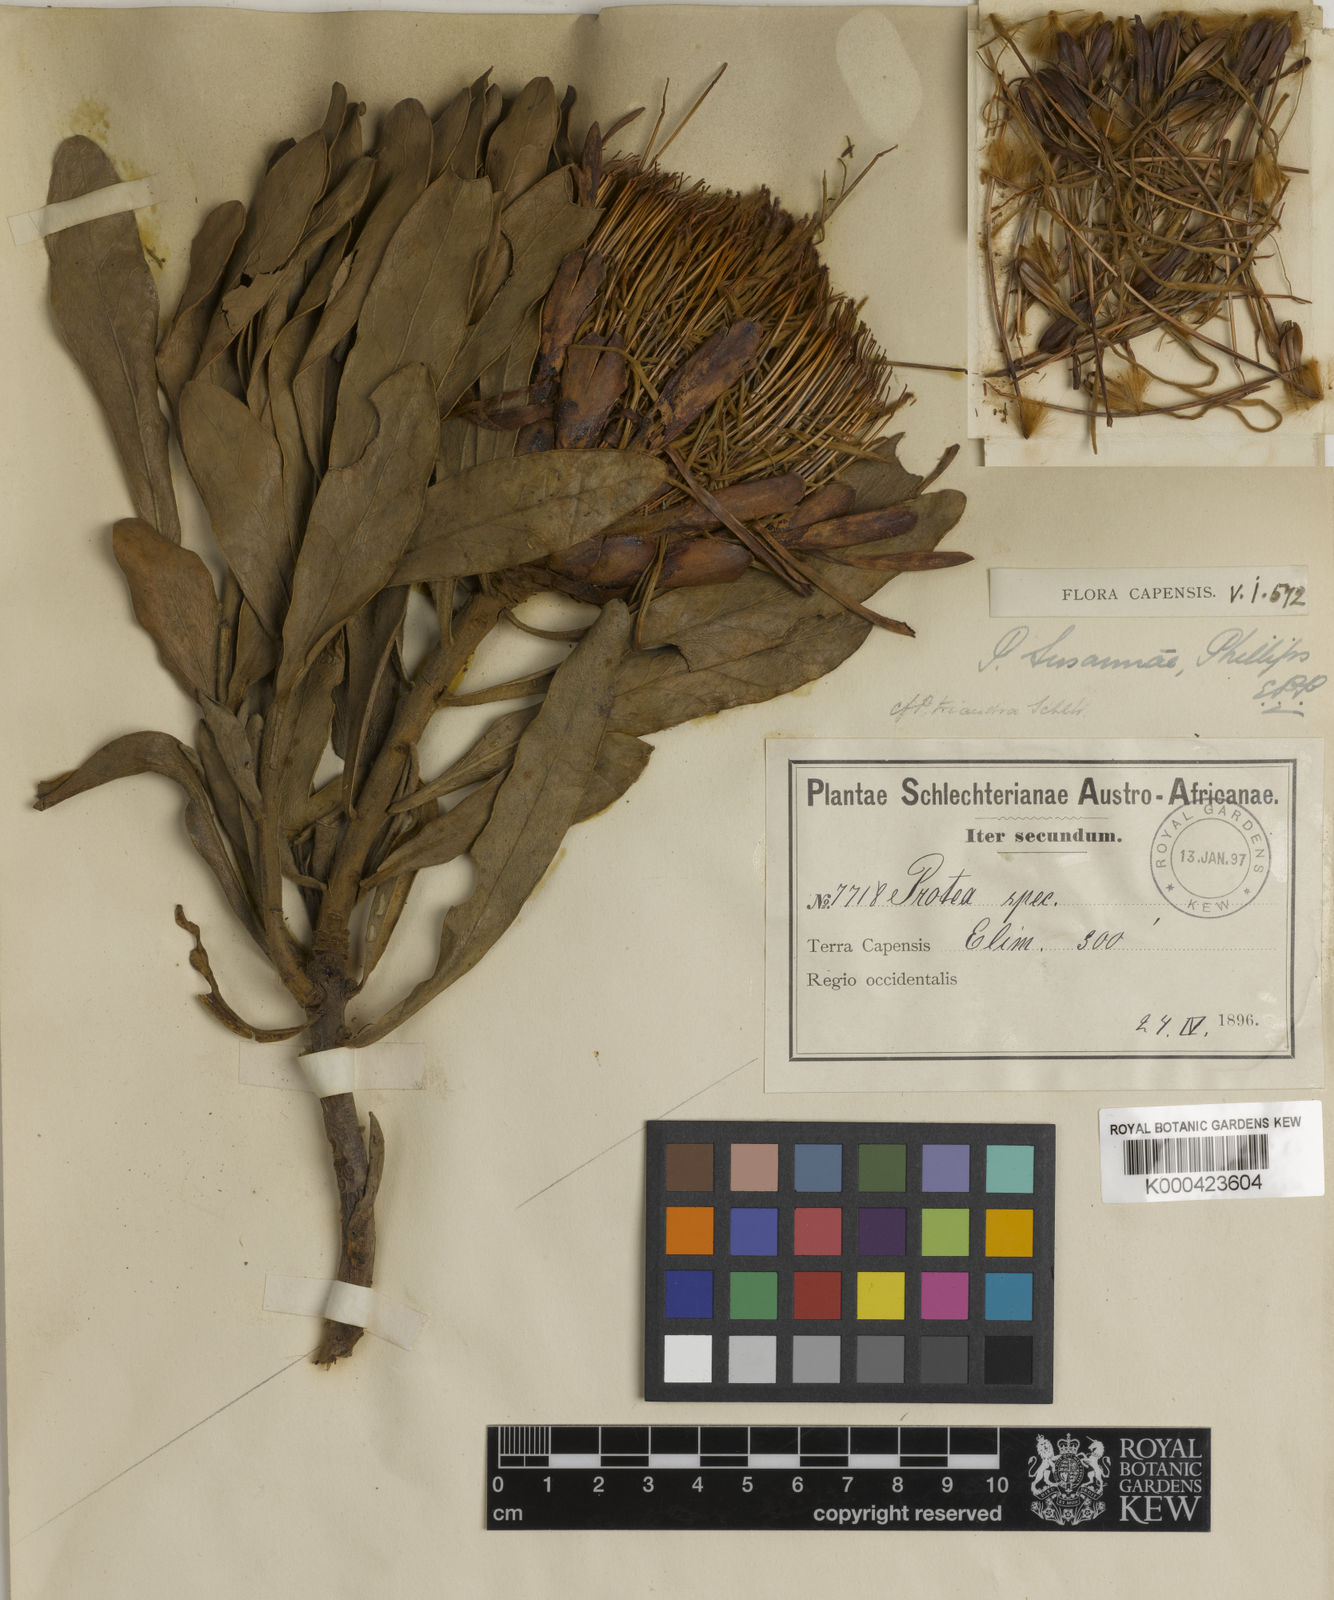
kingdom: Plantae
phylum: Tracheophyta
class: Magnoliopsida
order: Proteales
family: Proteaceae
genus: Protea
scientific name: Protea susannae
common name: Foetid-leaf sugarbush
